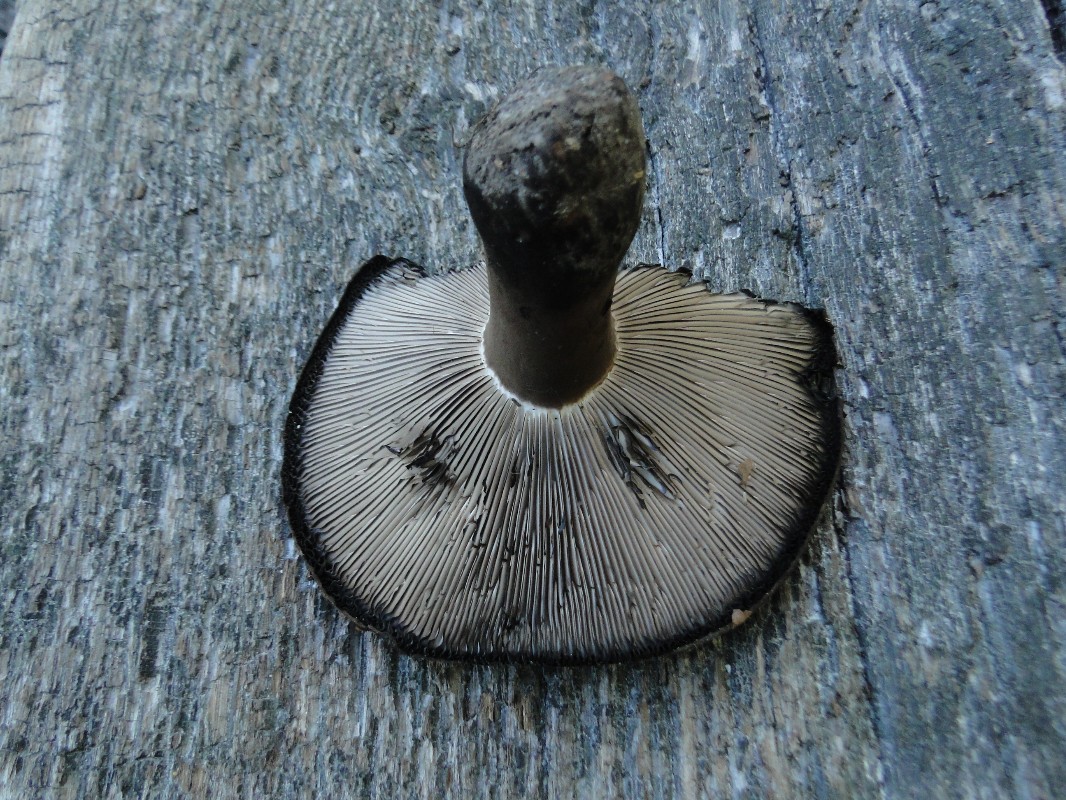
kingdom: Fungi
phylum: Basidiomycota
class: Agaricomycetes
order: Russulales
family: Russulaceae
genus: Russula
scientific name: Russula densifolia
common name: tætbladet skørhat
